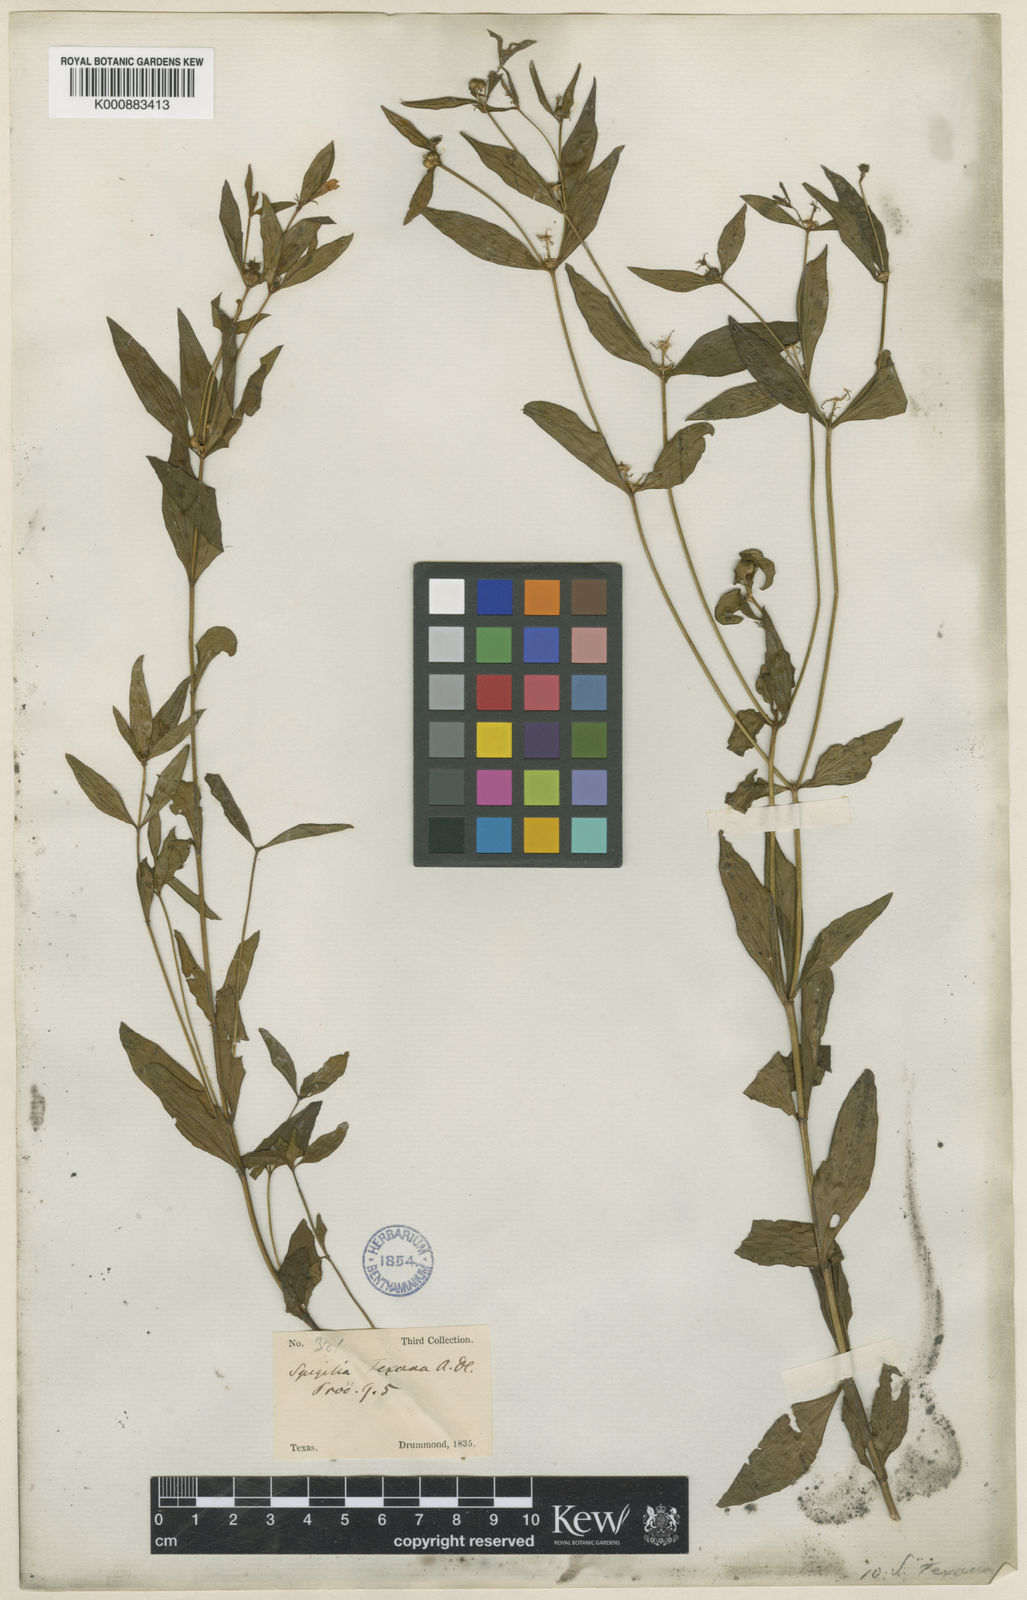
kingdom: Plantae
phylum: Tracheophyta
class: Magnoliopsida
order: Gentianales
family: Loganiaceae
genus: Spigelia
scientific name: Spigelia loganioides
